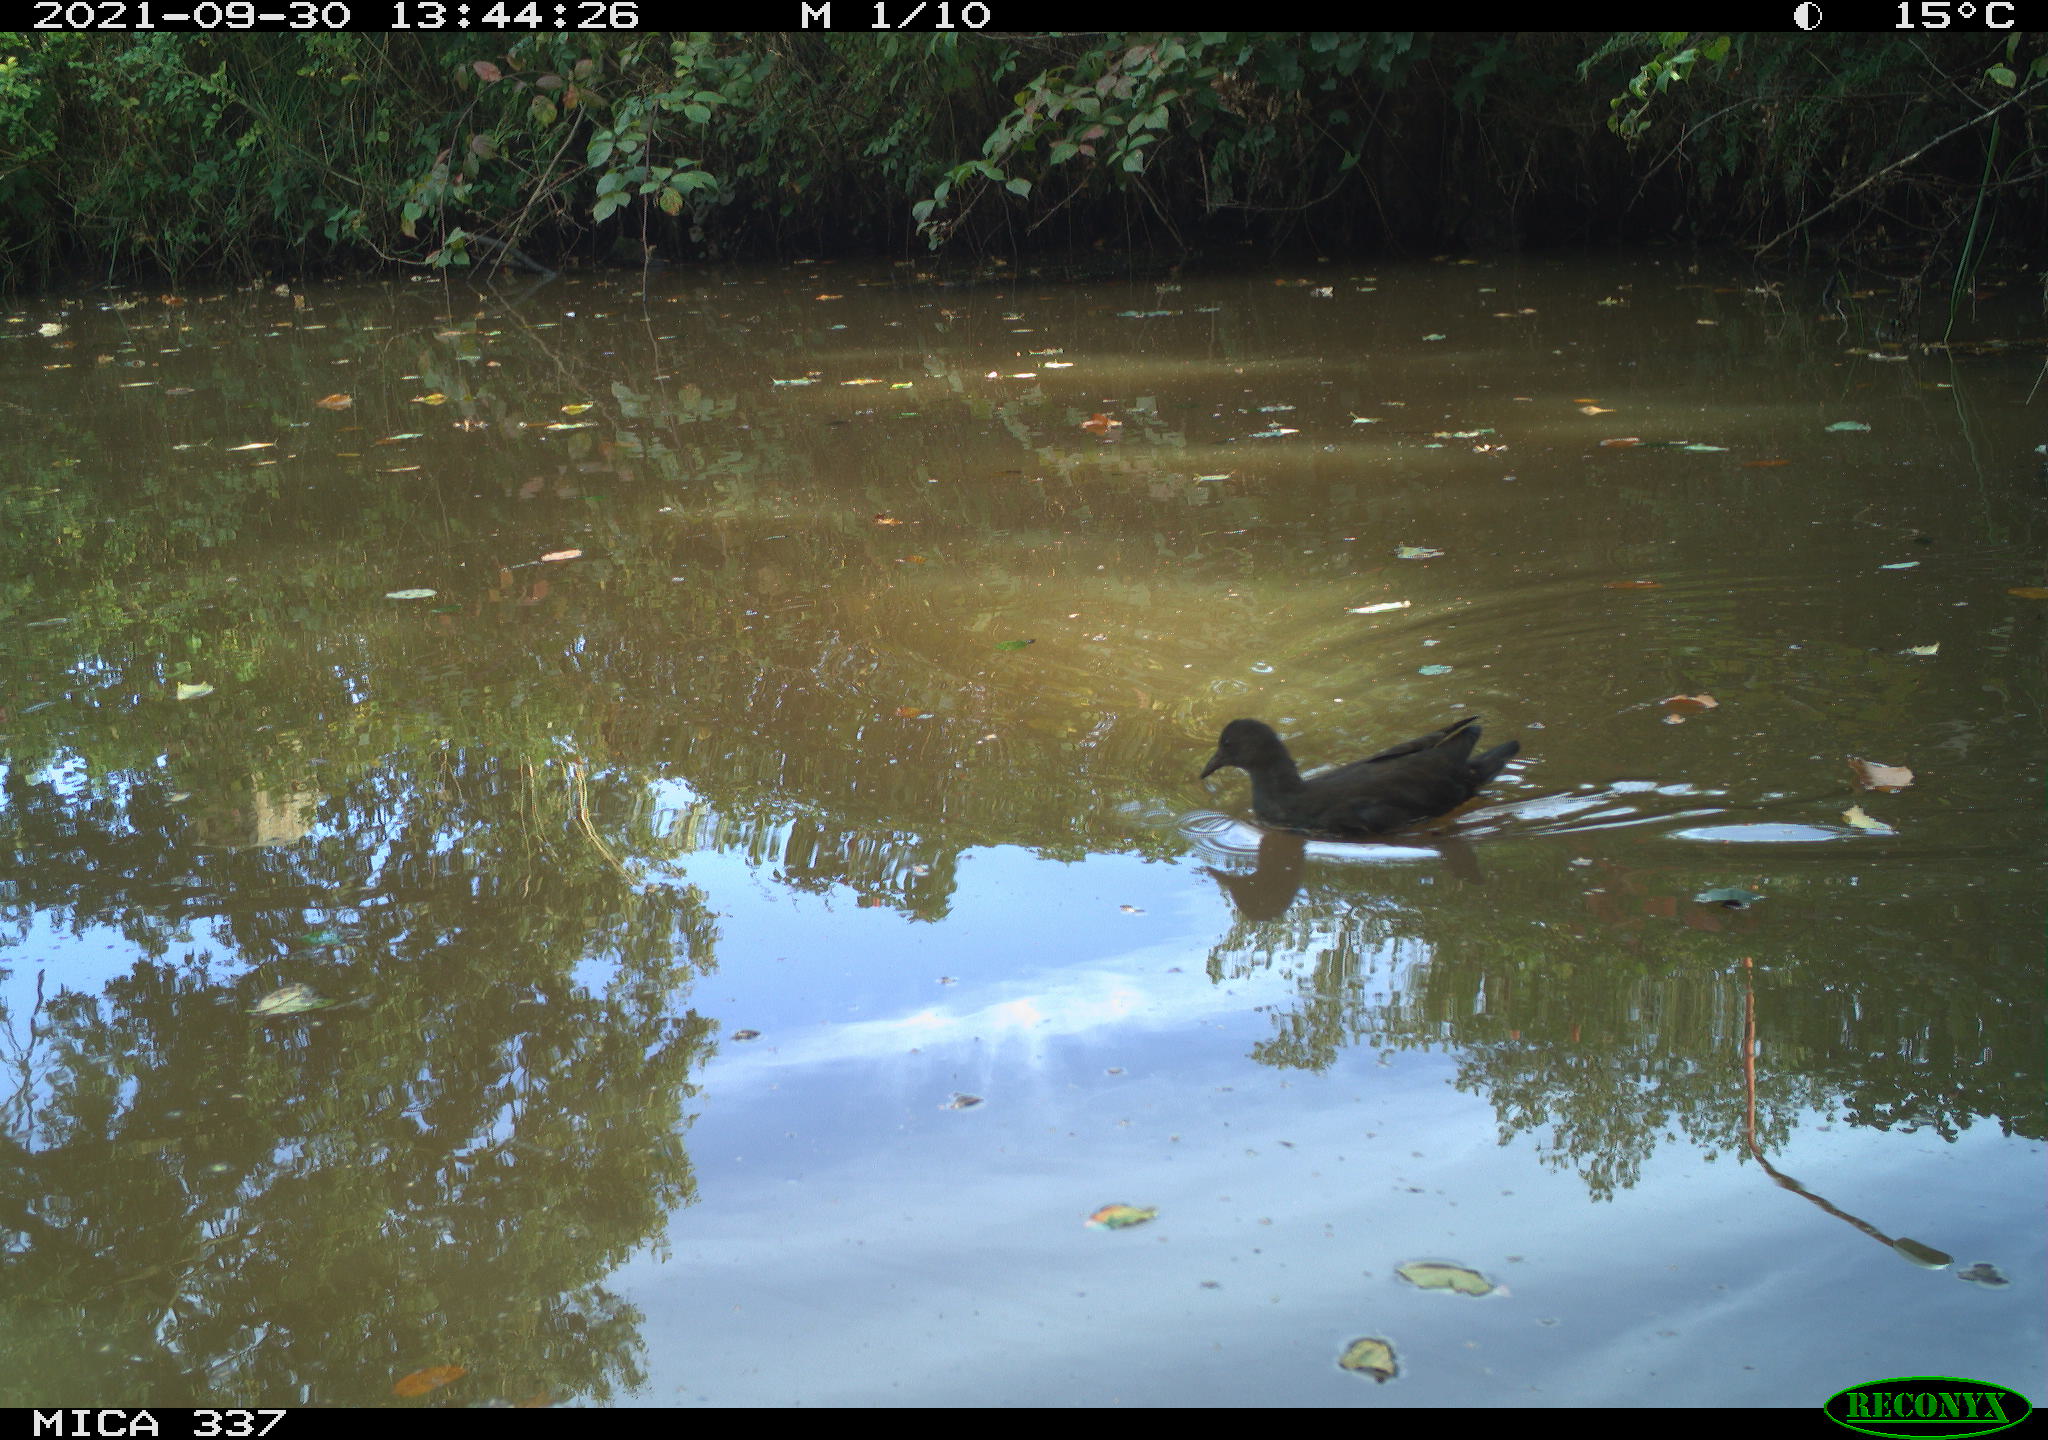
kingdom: Animalia
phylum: Chordata
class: Aves
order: Gruiformes
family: Rallidae
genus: Gallinula
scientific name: Gallinula chloropus
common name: Common moorhen
